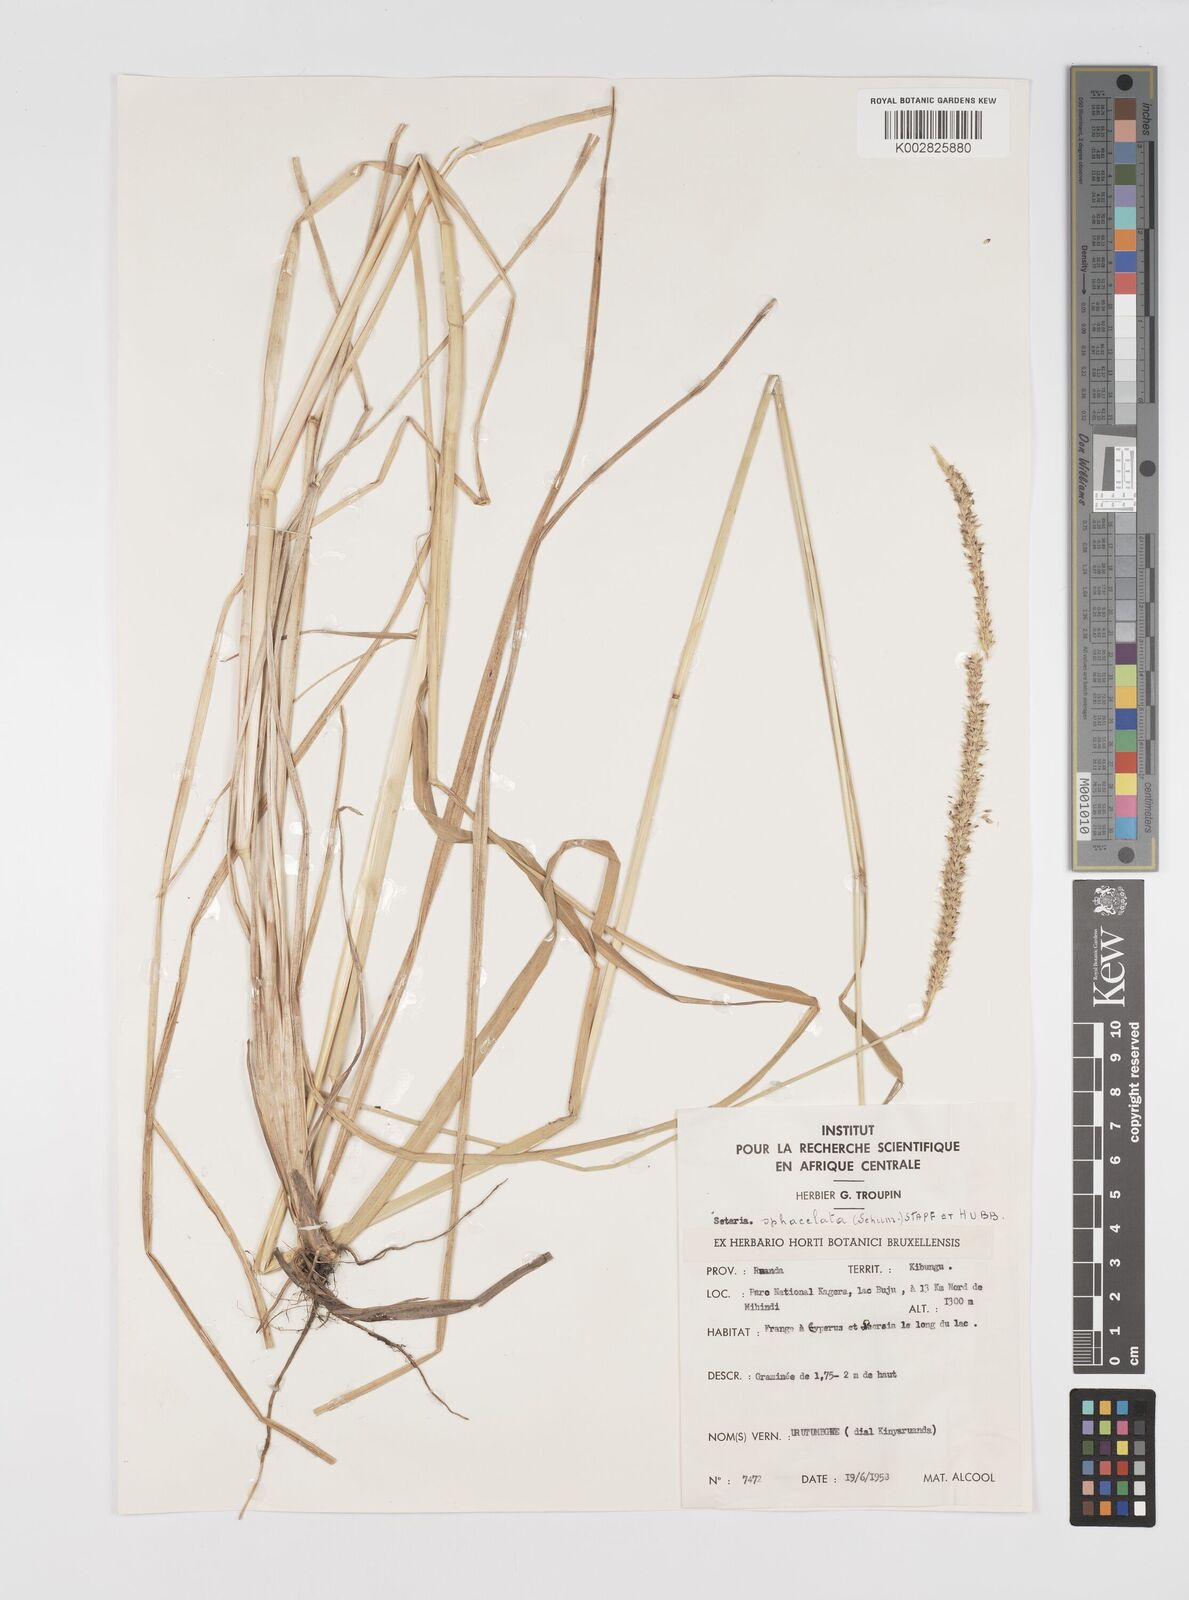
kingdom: Plantae
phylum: Tracheophyta
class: Liliopsida
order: Poales
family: Poaceae
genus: Setaria
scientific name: Setaria sphacelata
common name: African bristlegrass
